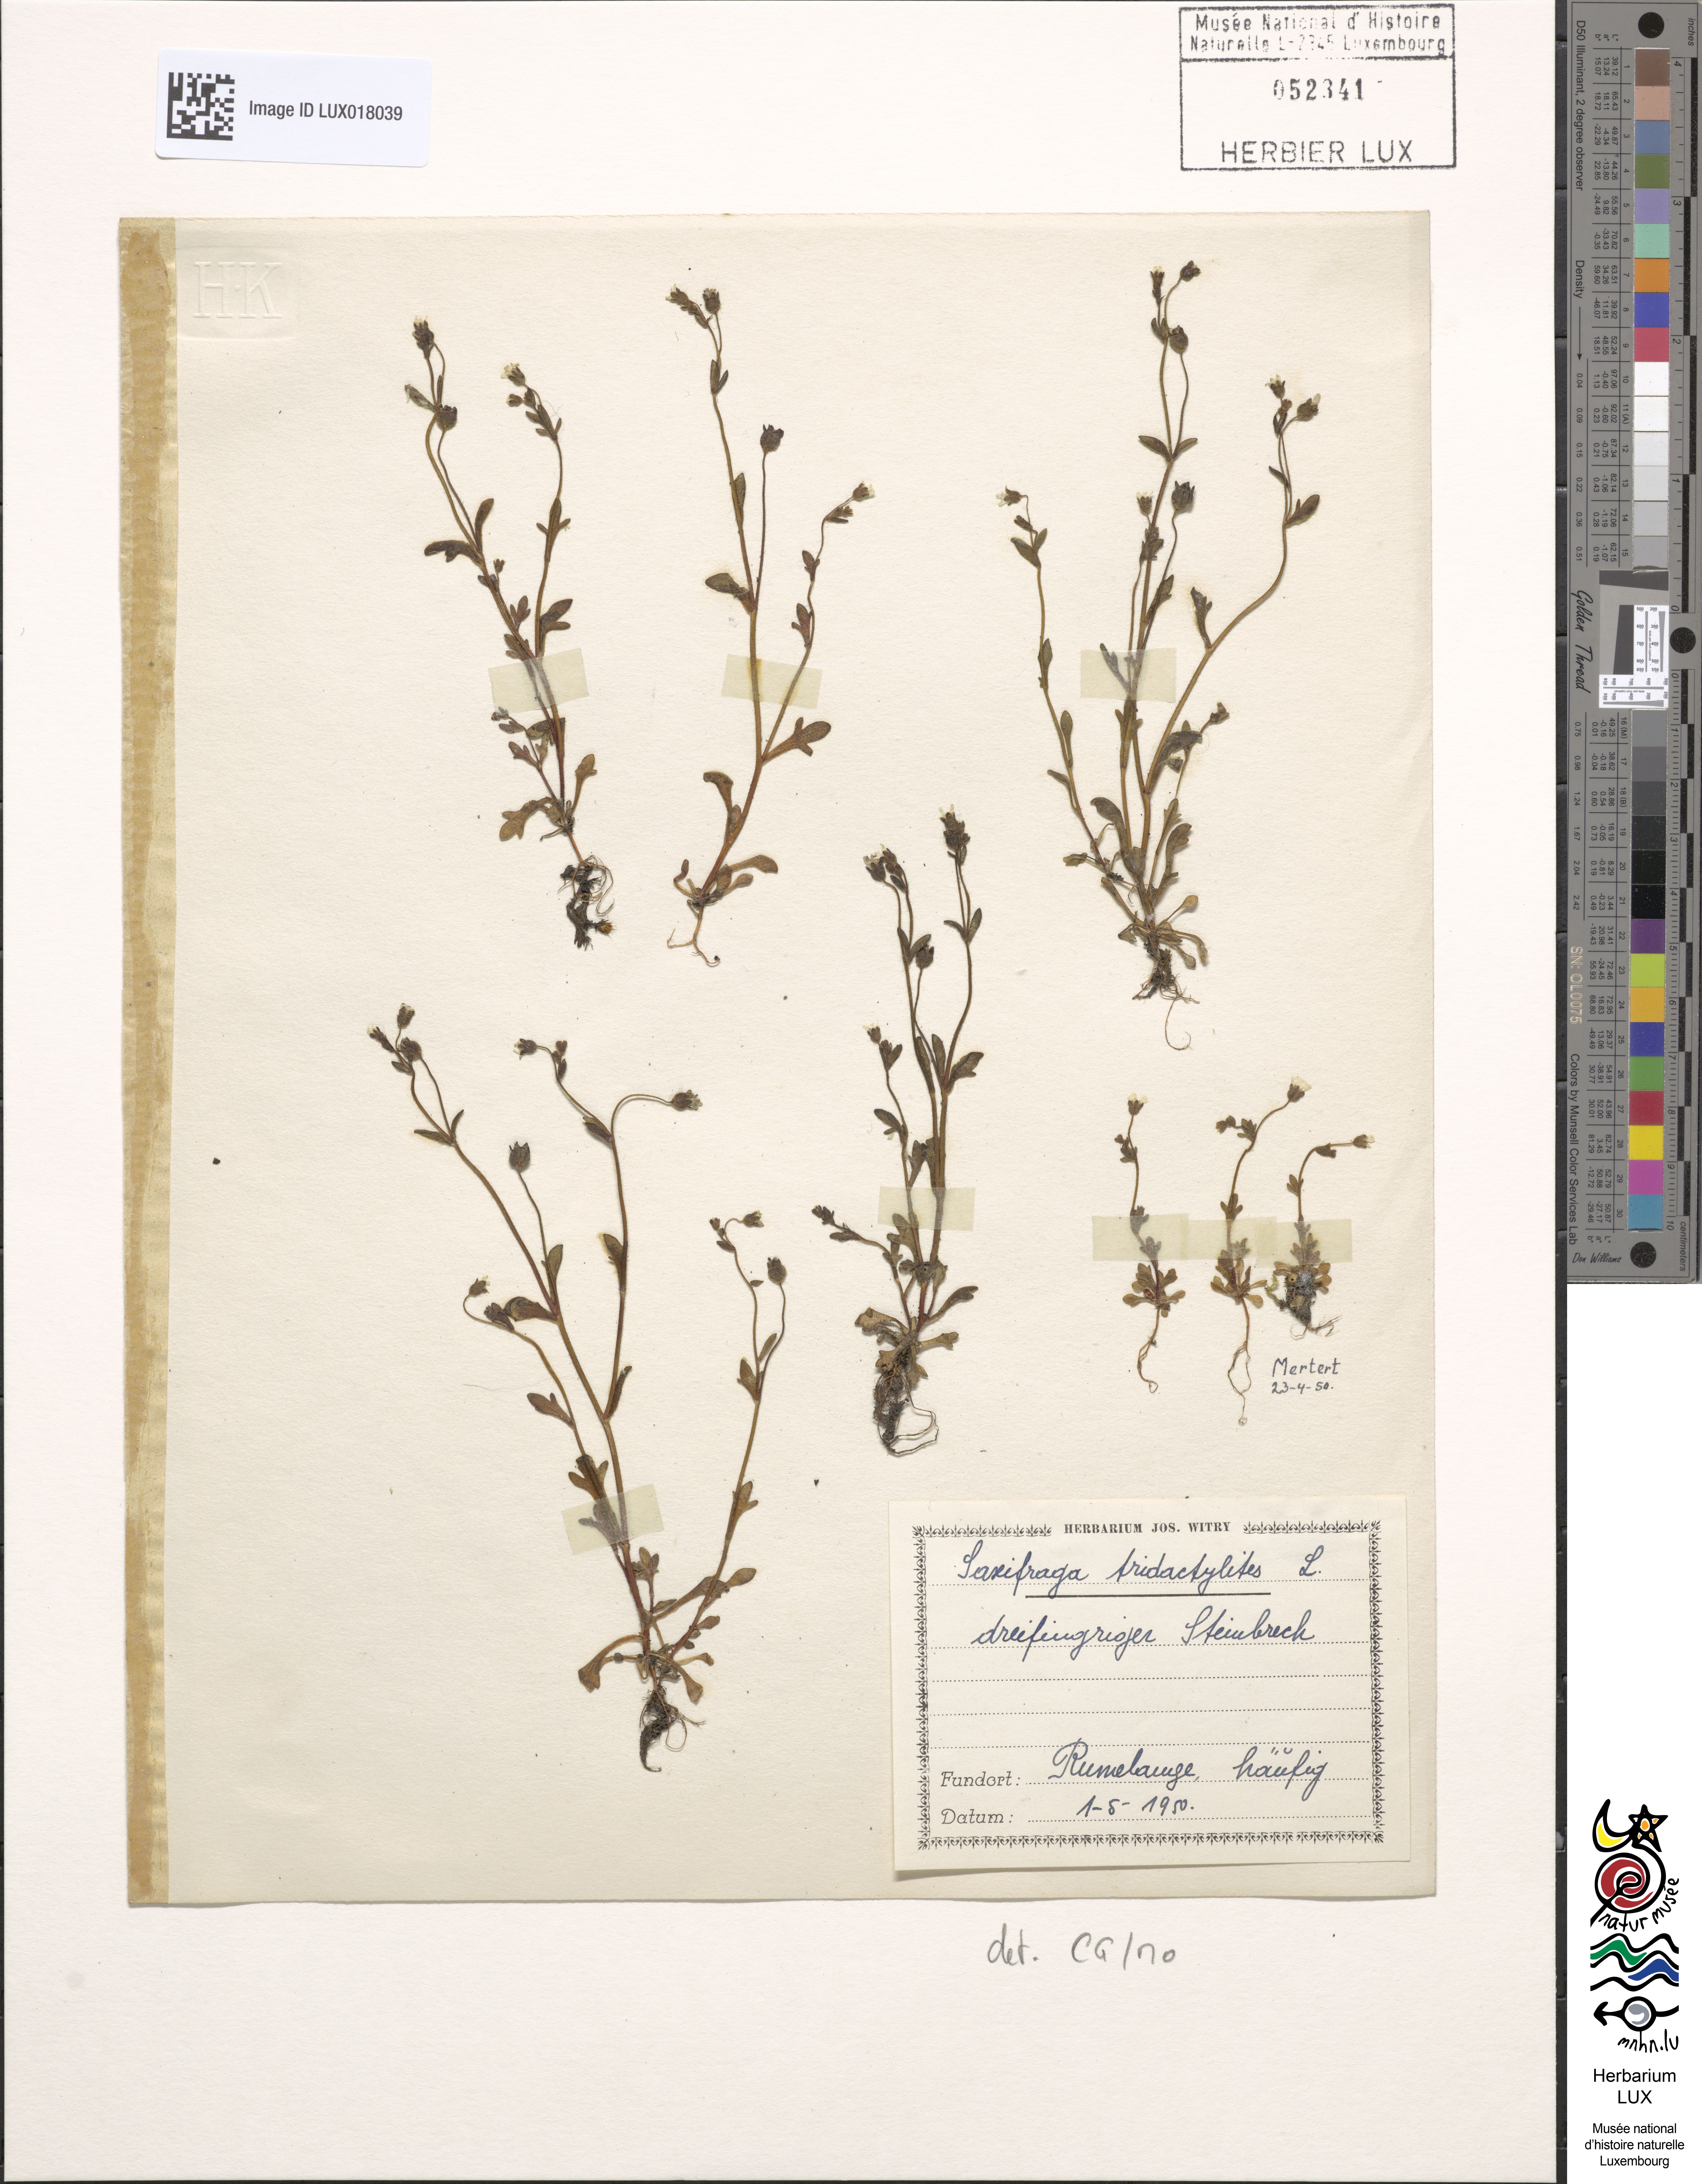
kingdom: Plantae
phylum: Tracheophyta
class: Magnoliopsida
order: Saxifragales
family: Saxifragaceae
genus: Saxifraga
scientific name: Saxifraga tridactylites
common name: Rue-leaved saxifrage
